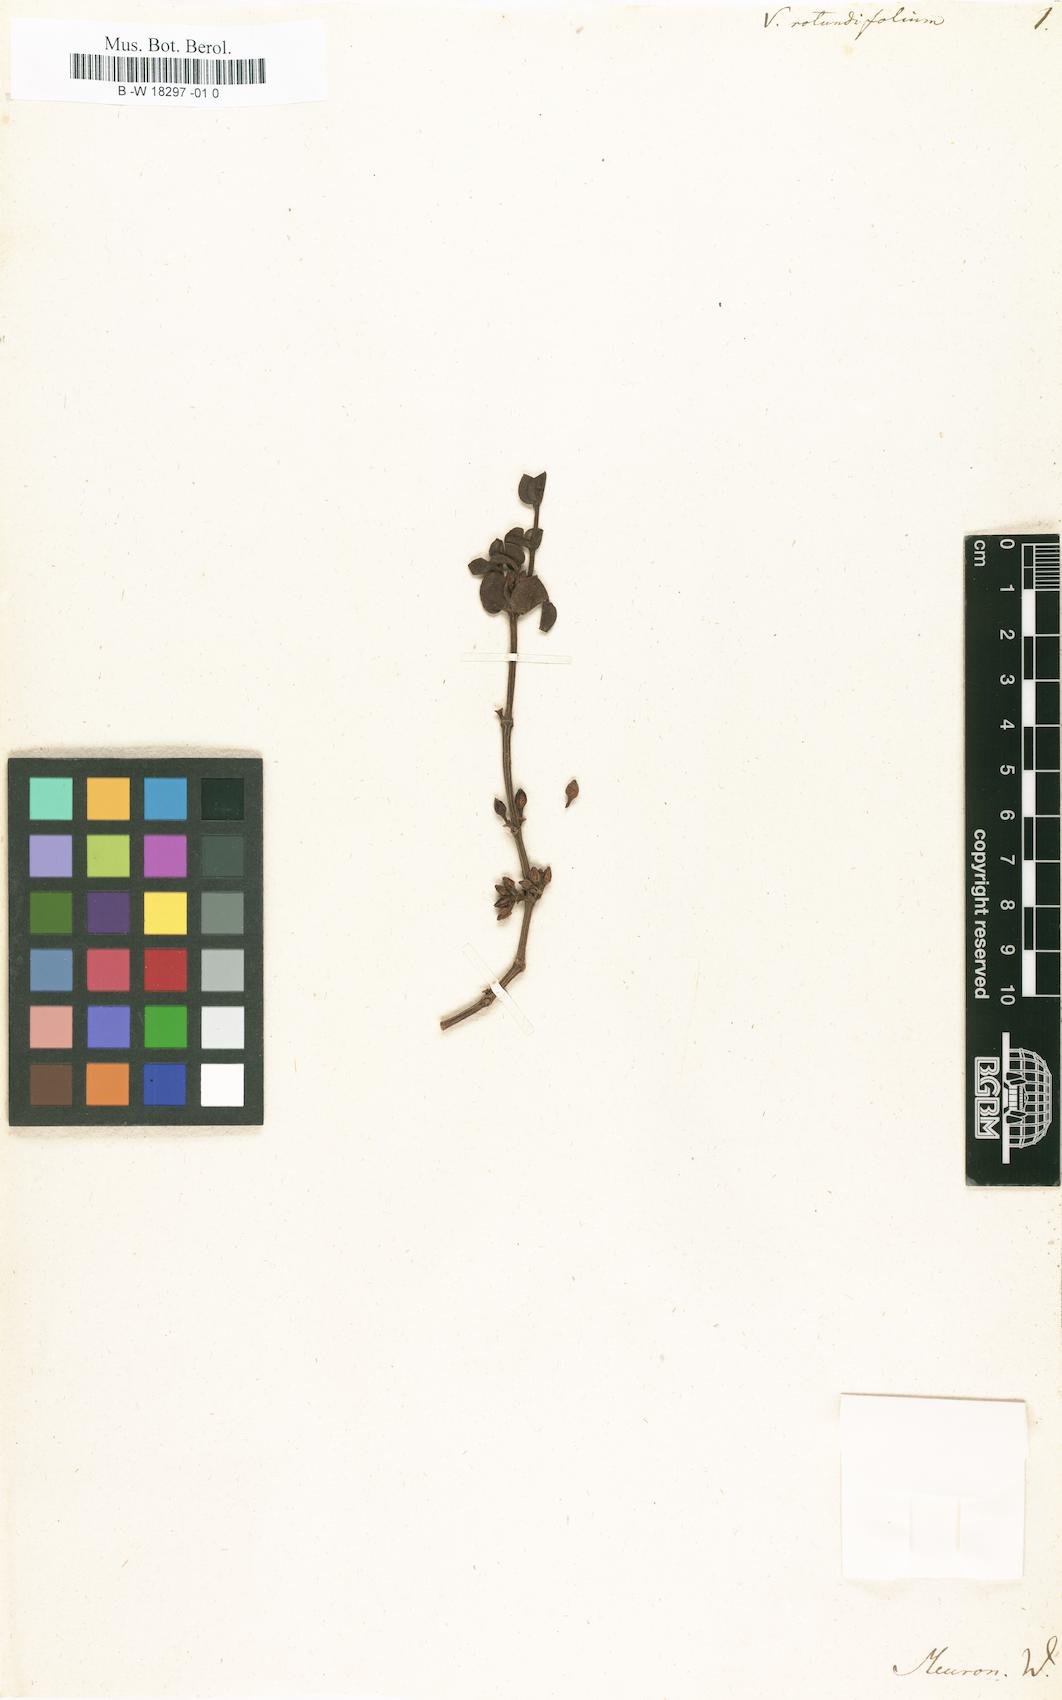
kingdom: Plantae
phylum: Tracheophyta
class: Magnoliopsida
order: Santalales
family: Viscaceae
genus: Viscum
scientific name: Viscum rotundifolium
